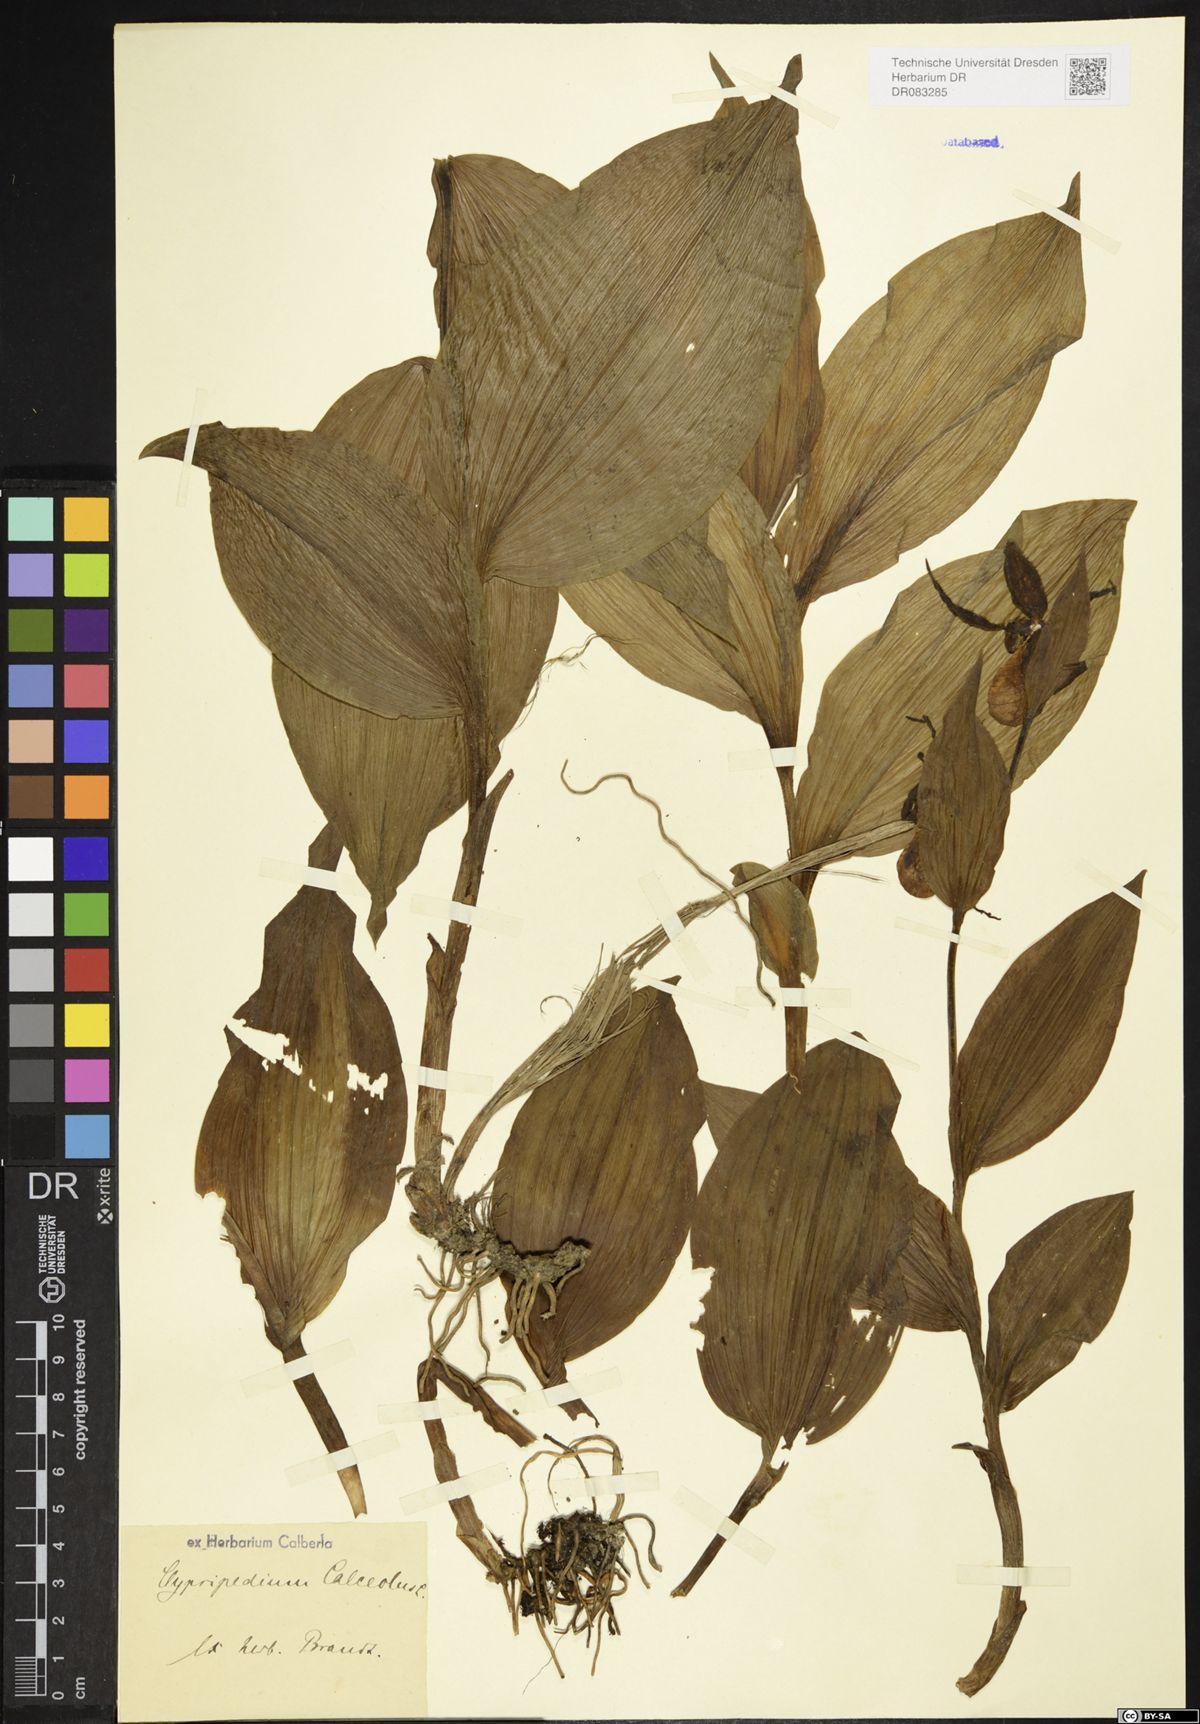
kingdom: Plantae
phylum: Tracheophyta
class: Liliopsida
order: Asparagales
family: Orchidaceae
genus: Cypripedium
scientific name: Cypripedium calceolus
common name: Lady's-slipper
